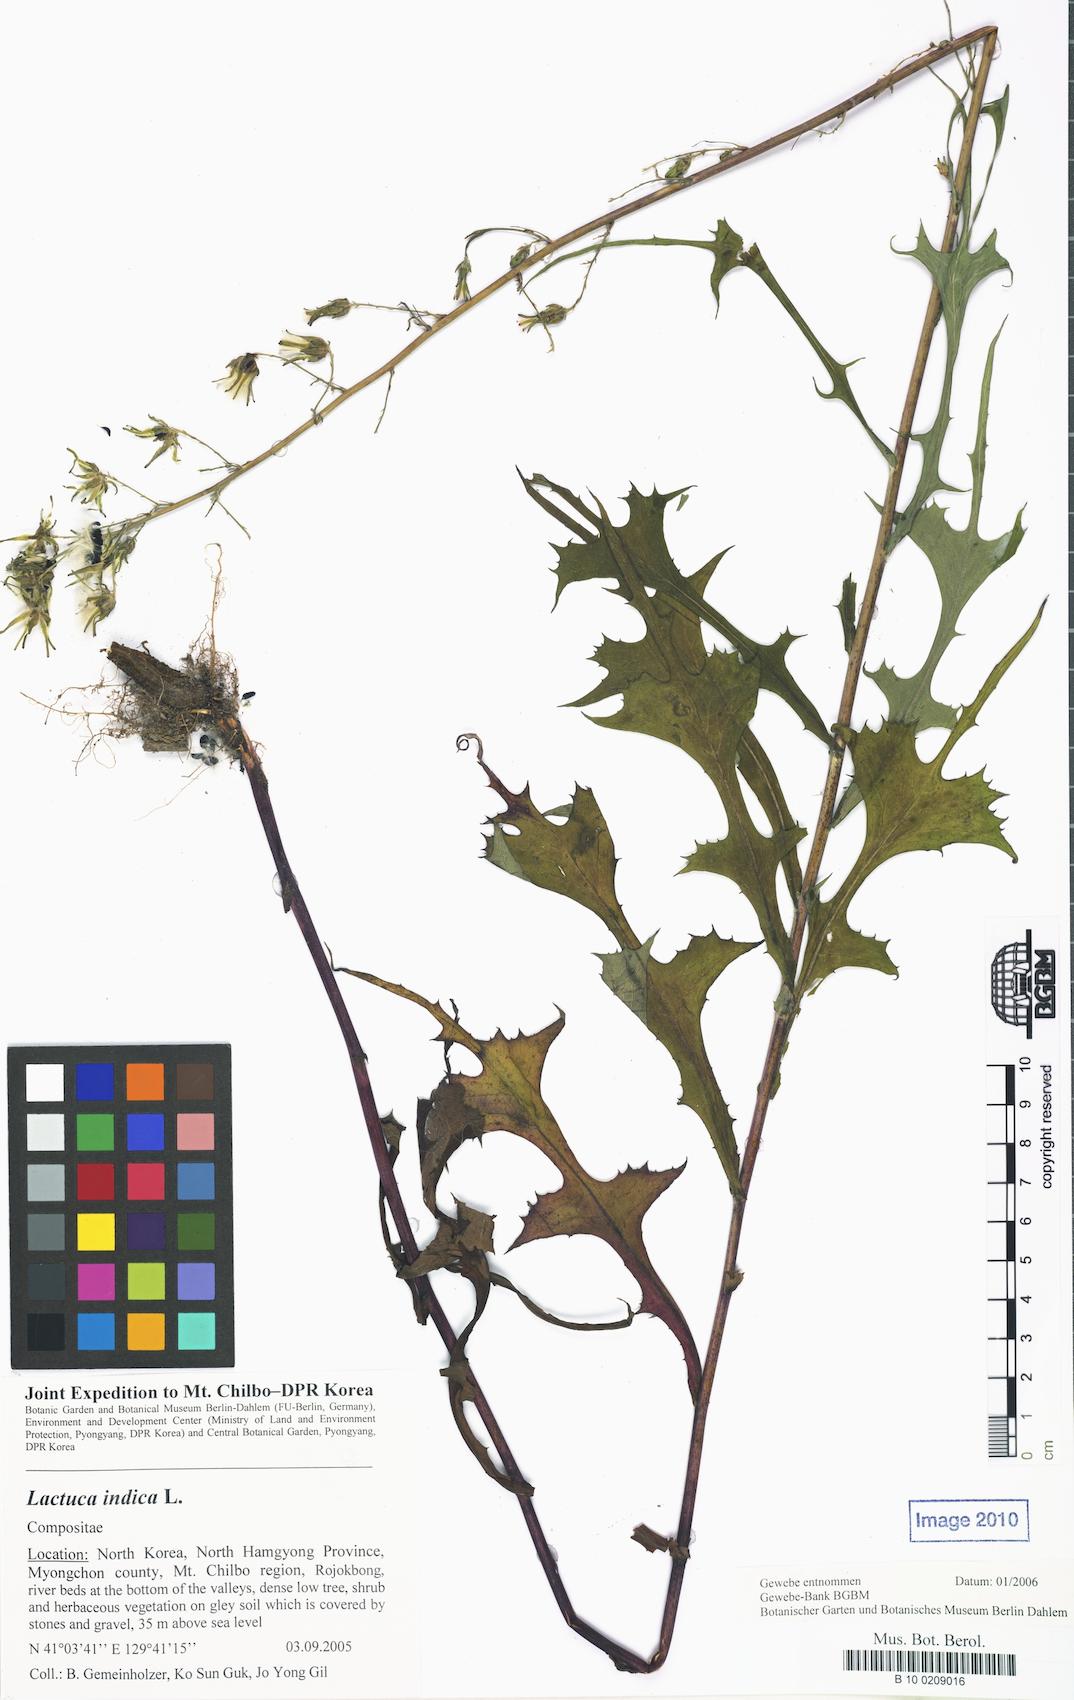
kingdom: Plantae
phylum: Tracheophyta
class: Magnoliopsida
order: Asterales
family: Asteraceae
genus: Lactuca
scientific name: Lactuca indica
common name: Wild lettuce
